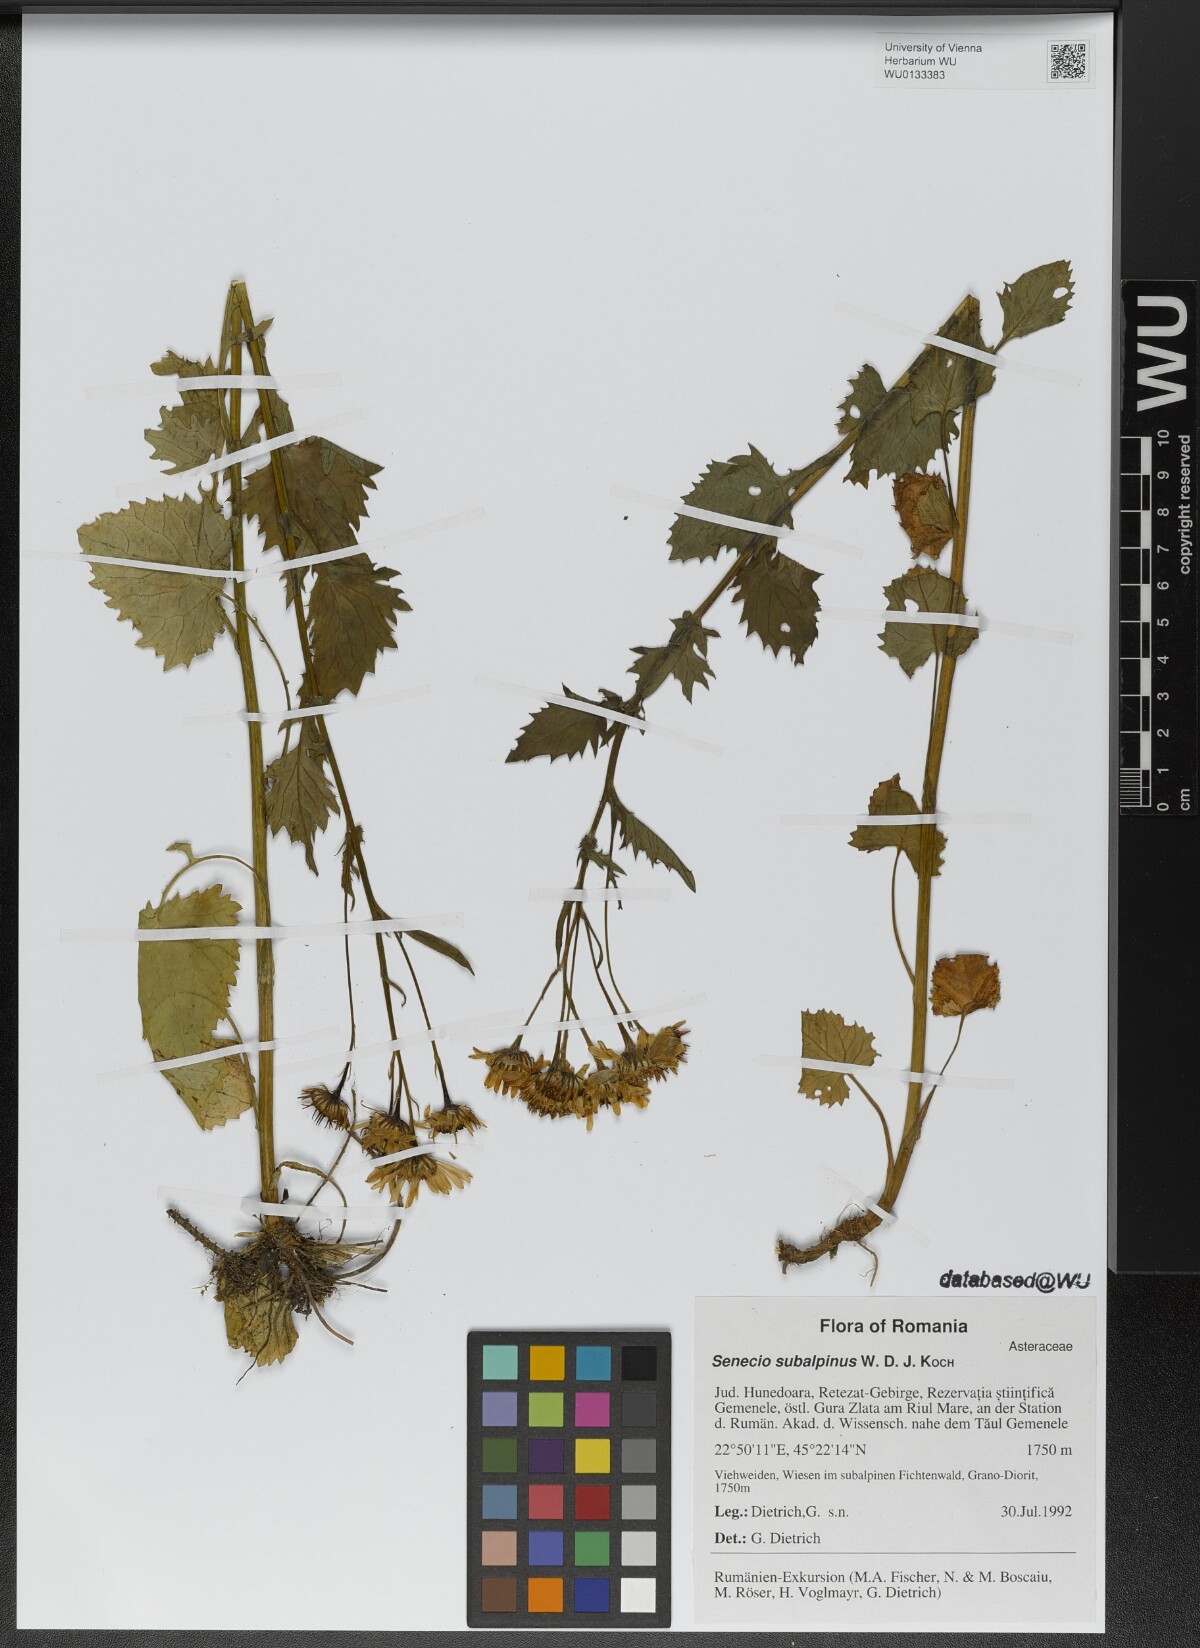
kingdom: Plantae
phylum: Tracheophyta
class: Magnoliopsida
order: Asterales
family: Asteraceae
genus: Jacobaea
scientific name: Jacobaea subalpina
